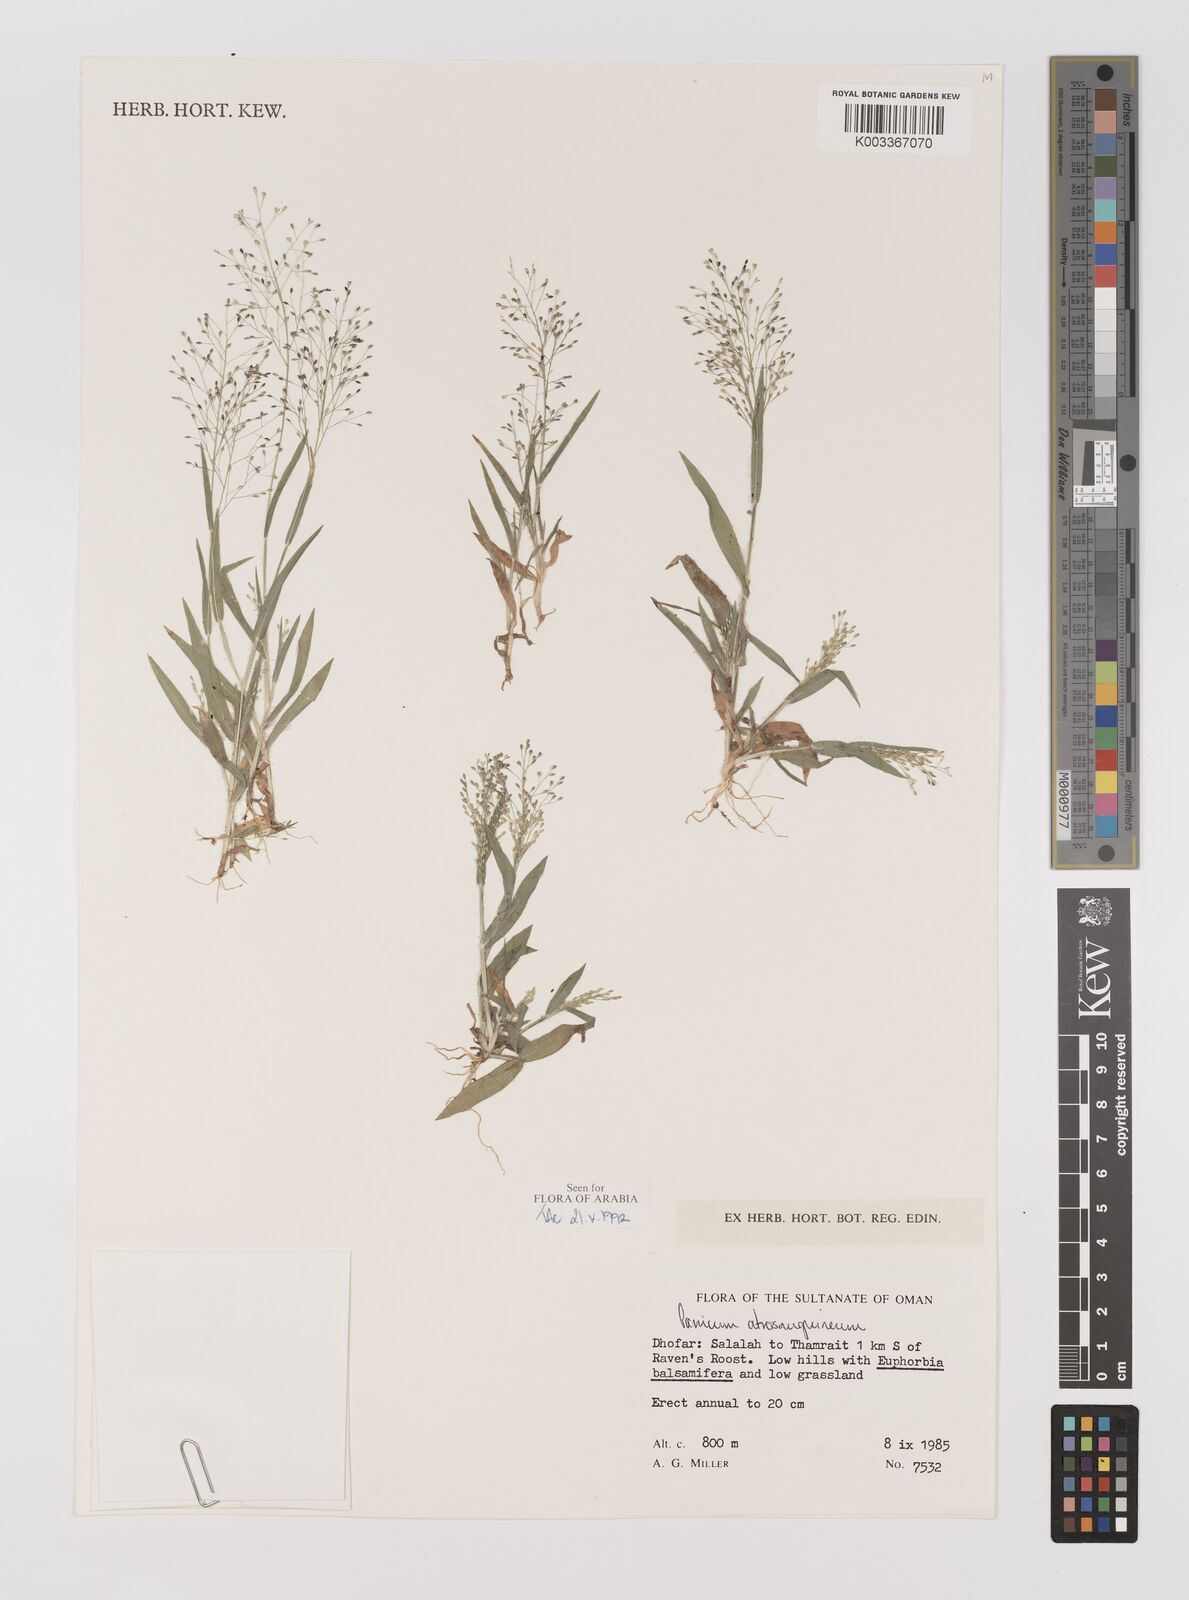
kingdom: Plantae
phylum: Tracheophyta
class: Liliopsida
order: Poales
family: Poaceae
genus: Panicum
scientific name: Panicum atrosanguineum
